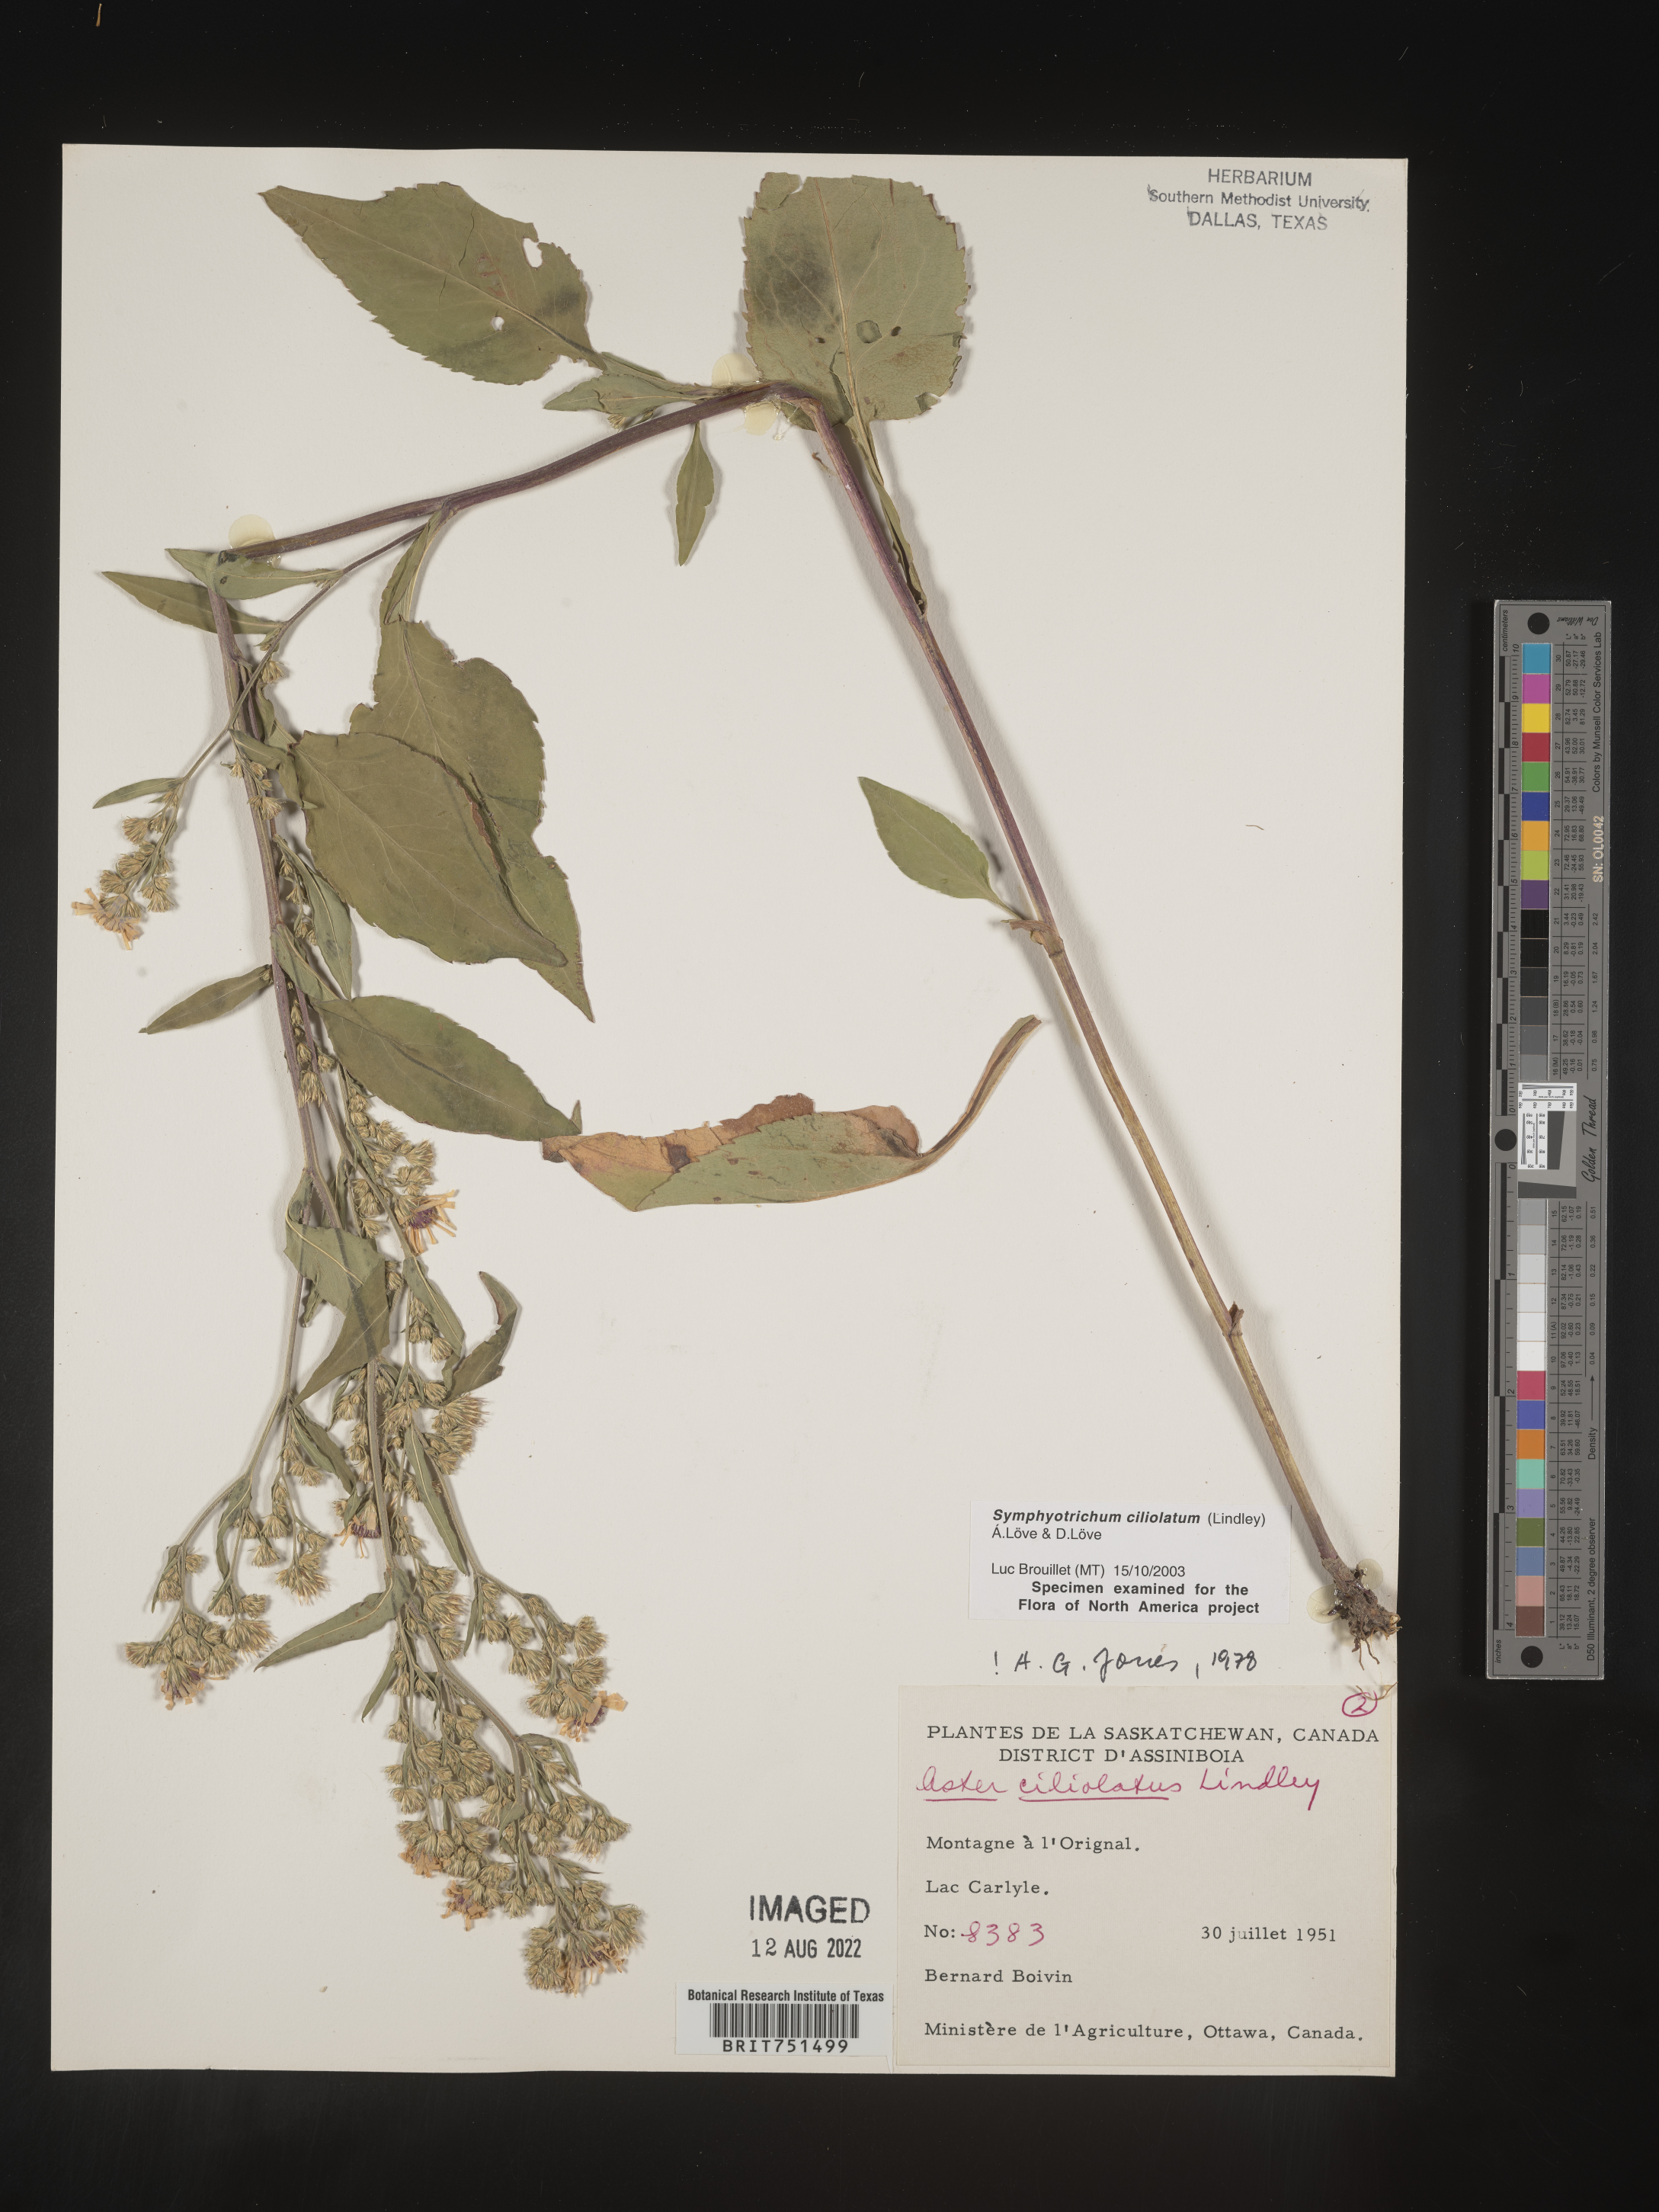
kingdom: Plantae
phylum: Tracheophyta
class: Magnoliopsida
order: Asterales
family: Asteraceae
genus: Symphyotrichum
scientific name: Symphyotrichum ciliolatum
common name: Fringed blue aster
